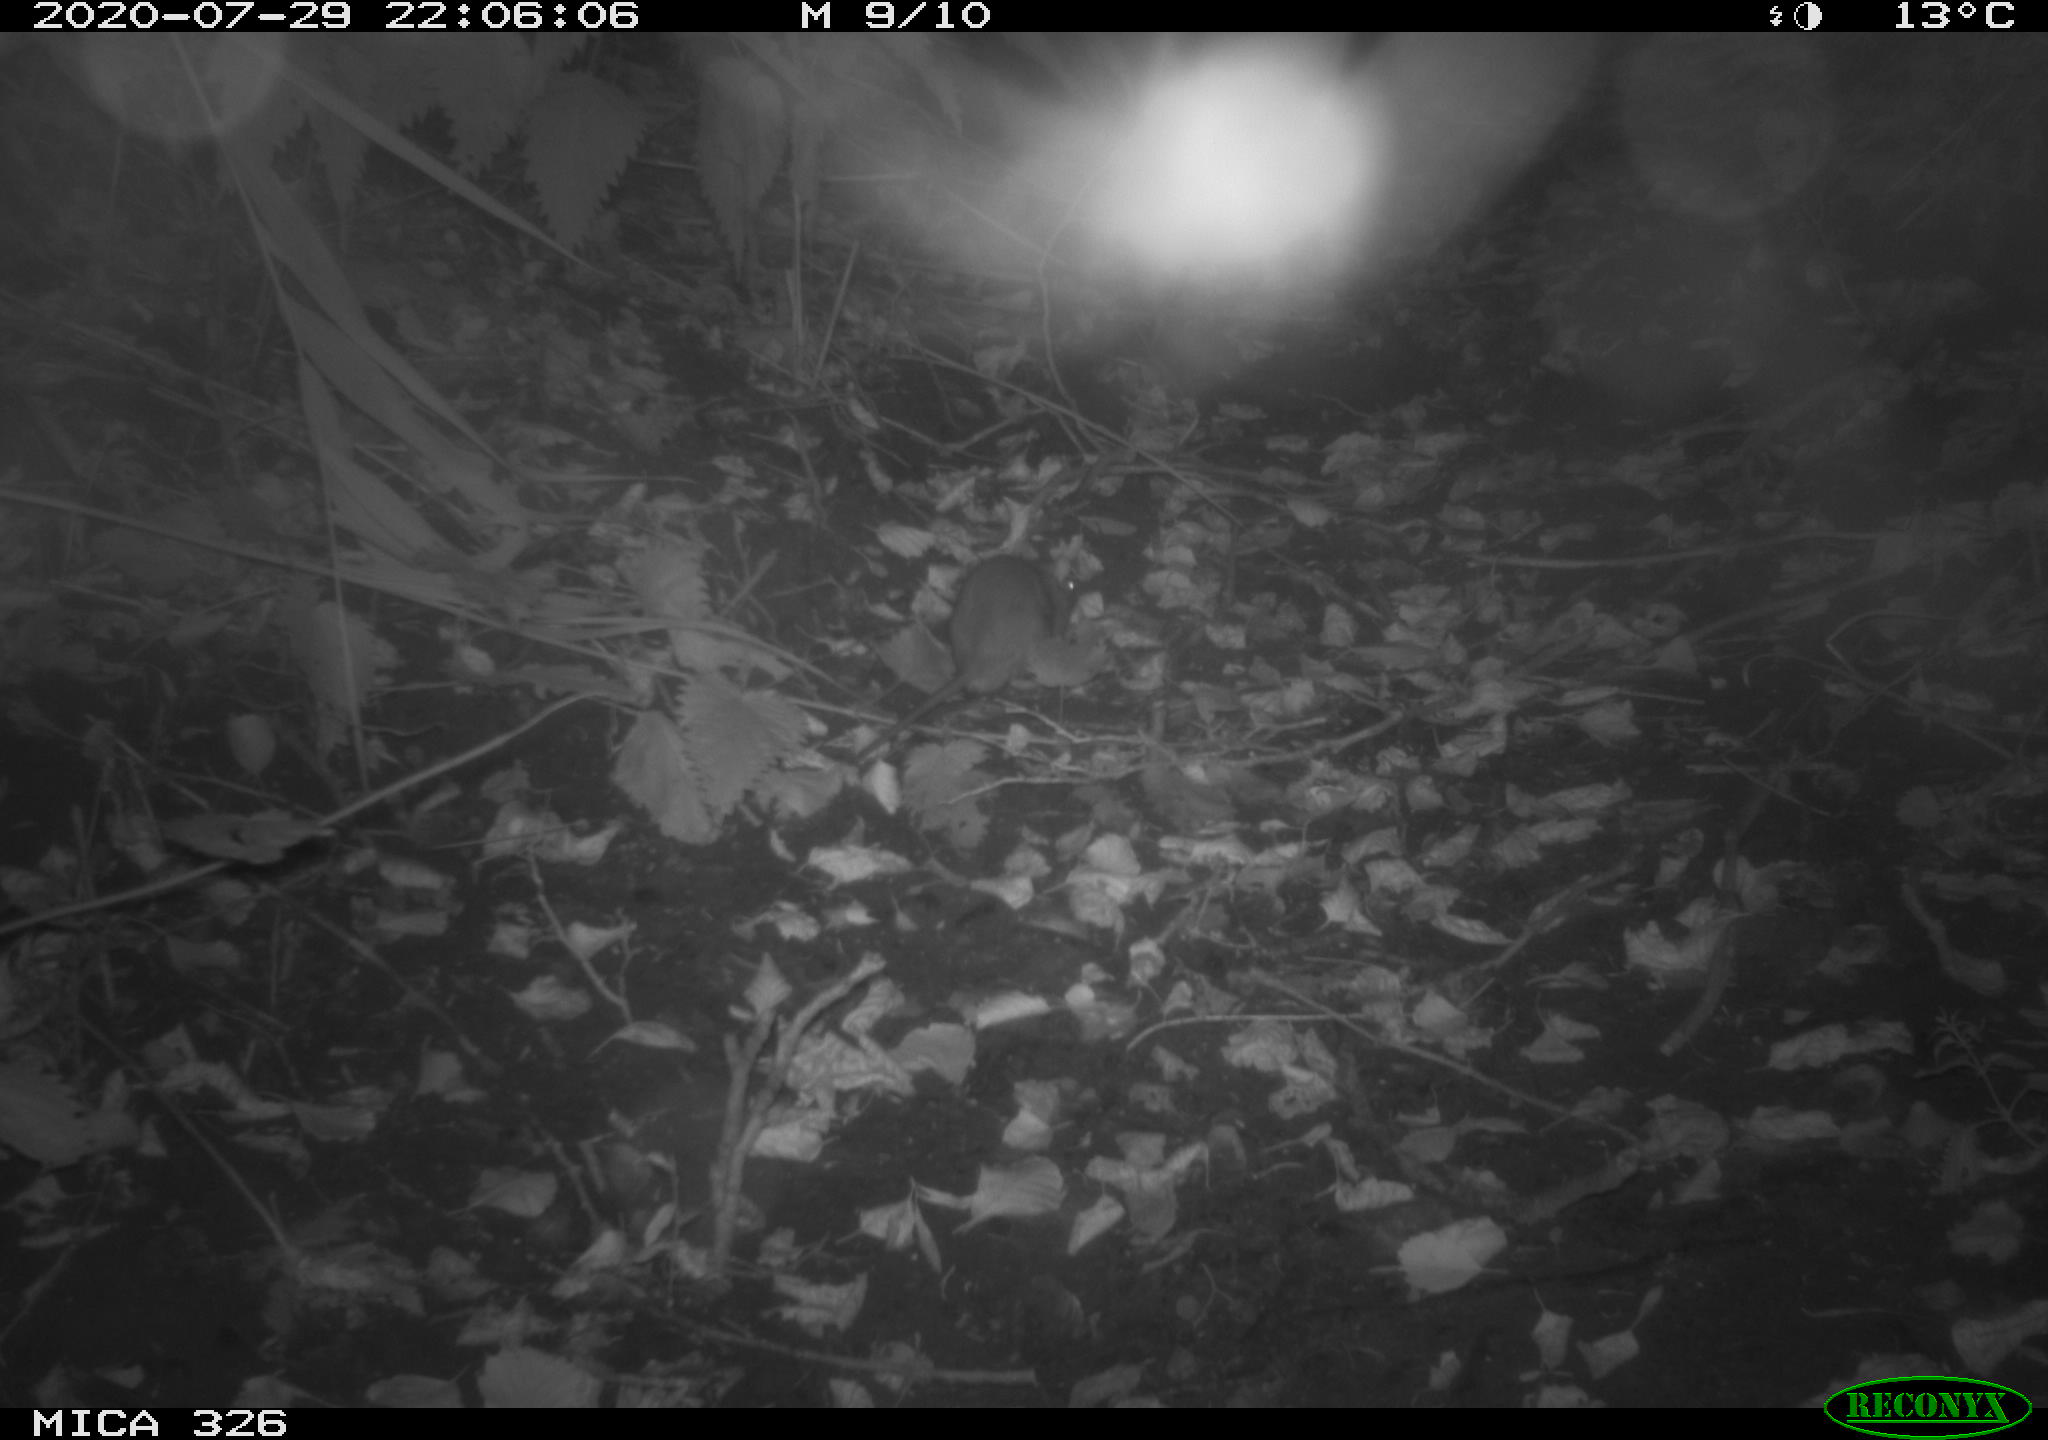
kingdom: Animalia
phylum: Chordata
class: Mammalia
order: Rodentia
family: Muridae
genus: Rattus
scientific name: Rattus norvegicus
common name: Brown rat
